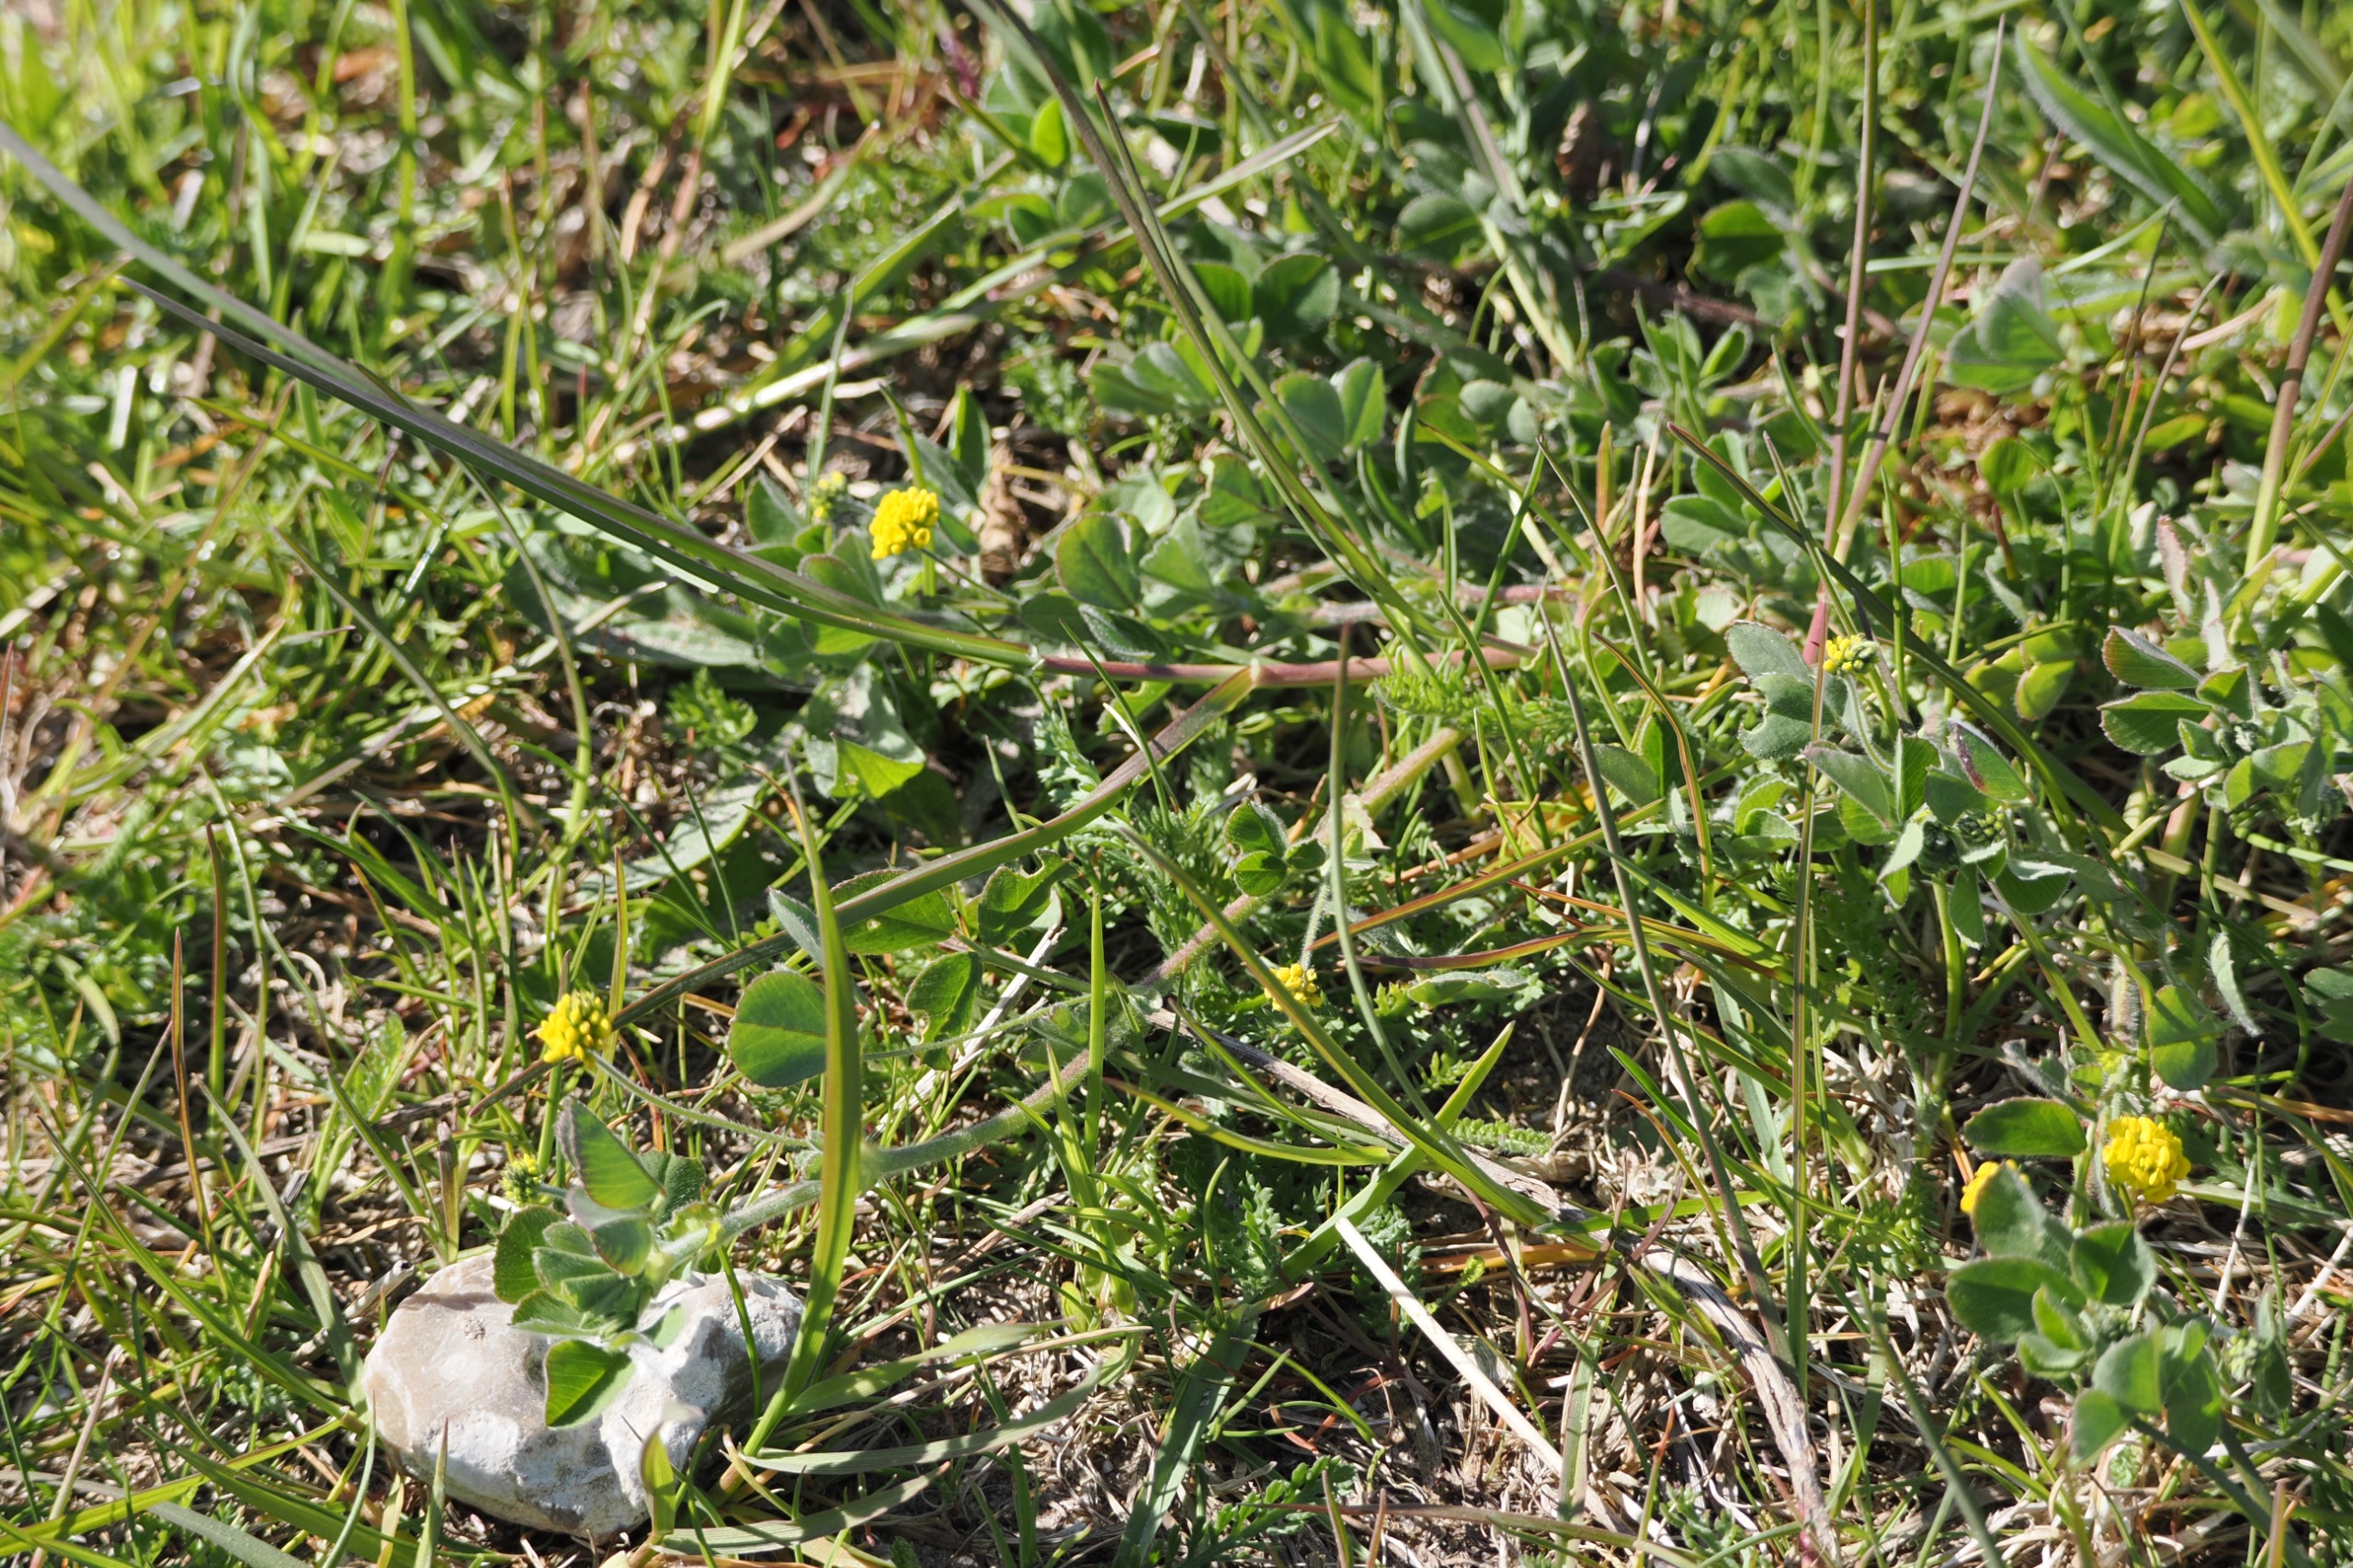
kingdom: Plantae
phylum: Tracheophyta
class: Magnoliopsida
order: Fabales
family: Fabaceae
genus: Medicago
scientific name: Medicago lupulina
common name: Humle-sneglebælg
